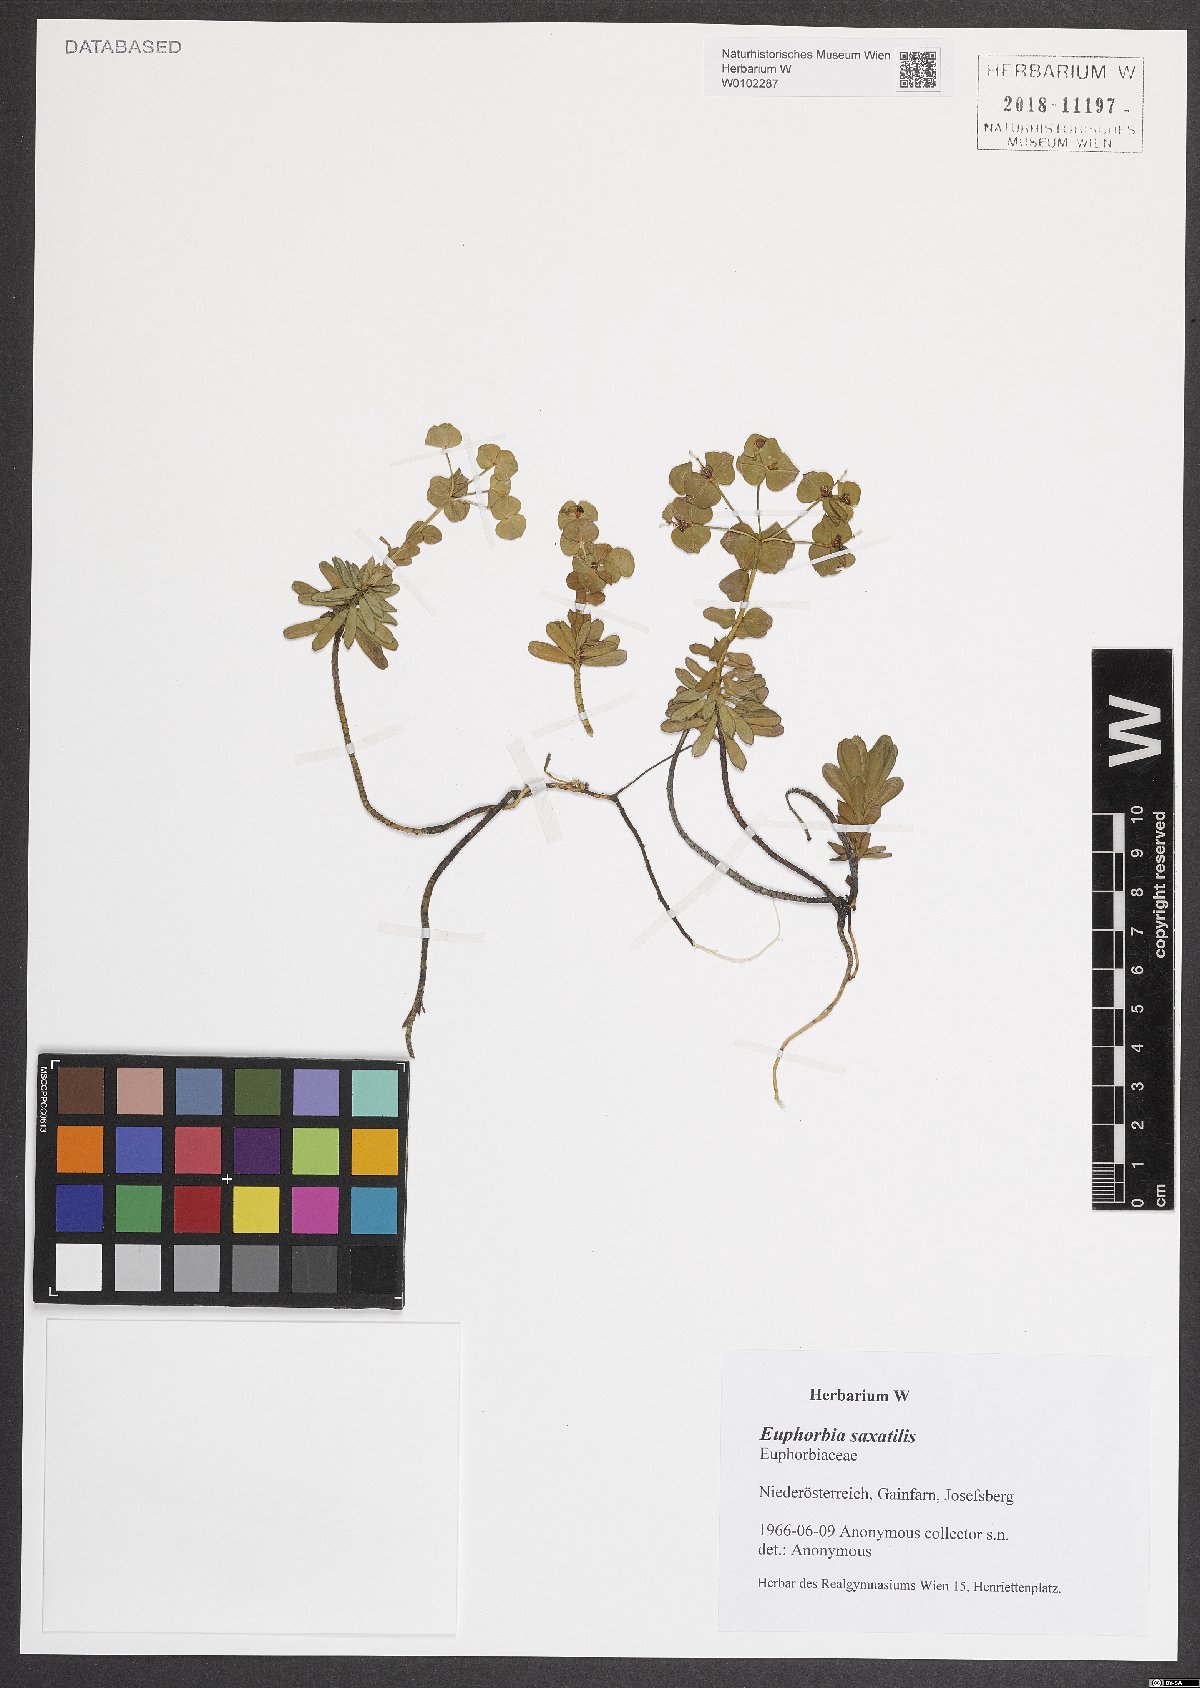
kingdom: Plantae
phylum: Tracheophyta
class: Magnoliopsida
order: Malpighiales
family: Euphorbiaceae
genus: Euphorbia
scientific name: Euphorbia saxatilis
